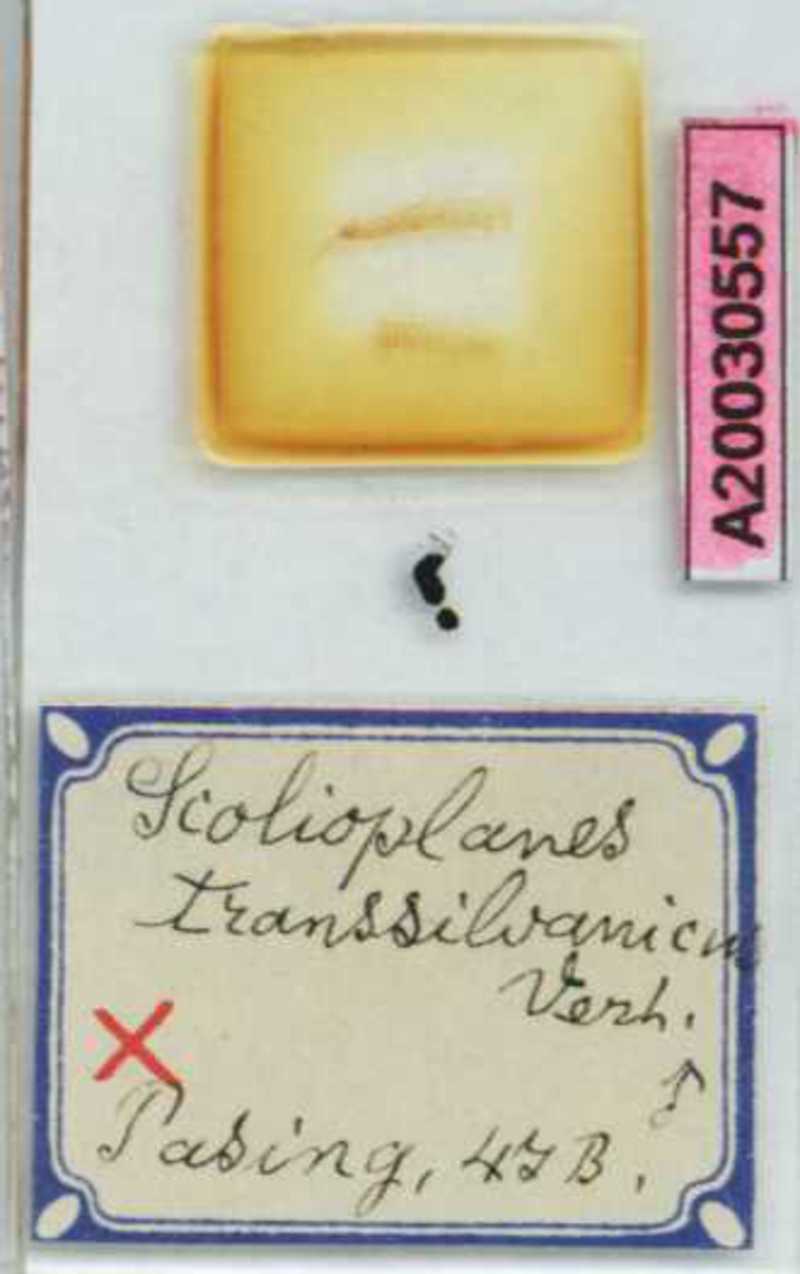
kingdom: Animalia
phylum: Arthropoda
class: Chilopoda
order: Geophilomorpha
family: Linotaeniidae
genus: Strigamia
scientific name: Strigamia transsilvanica
